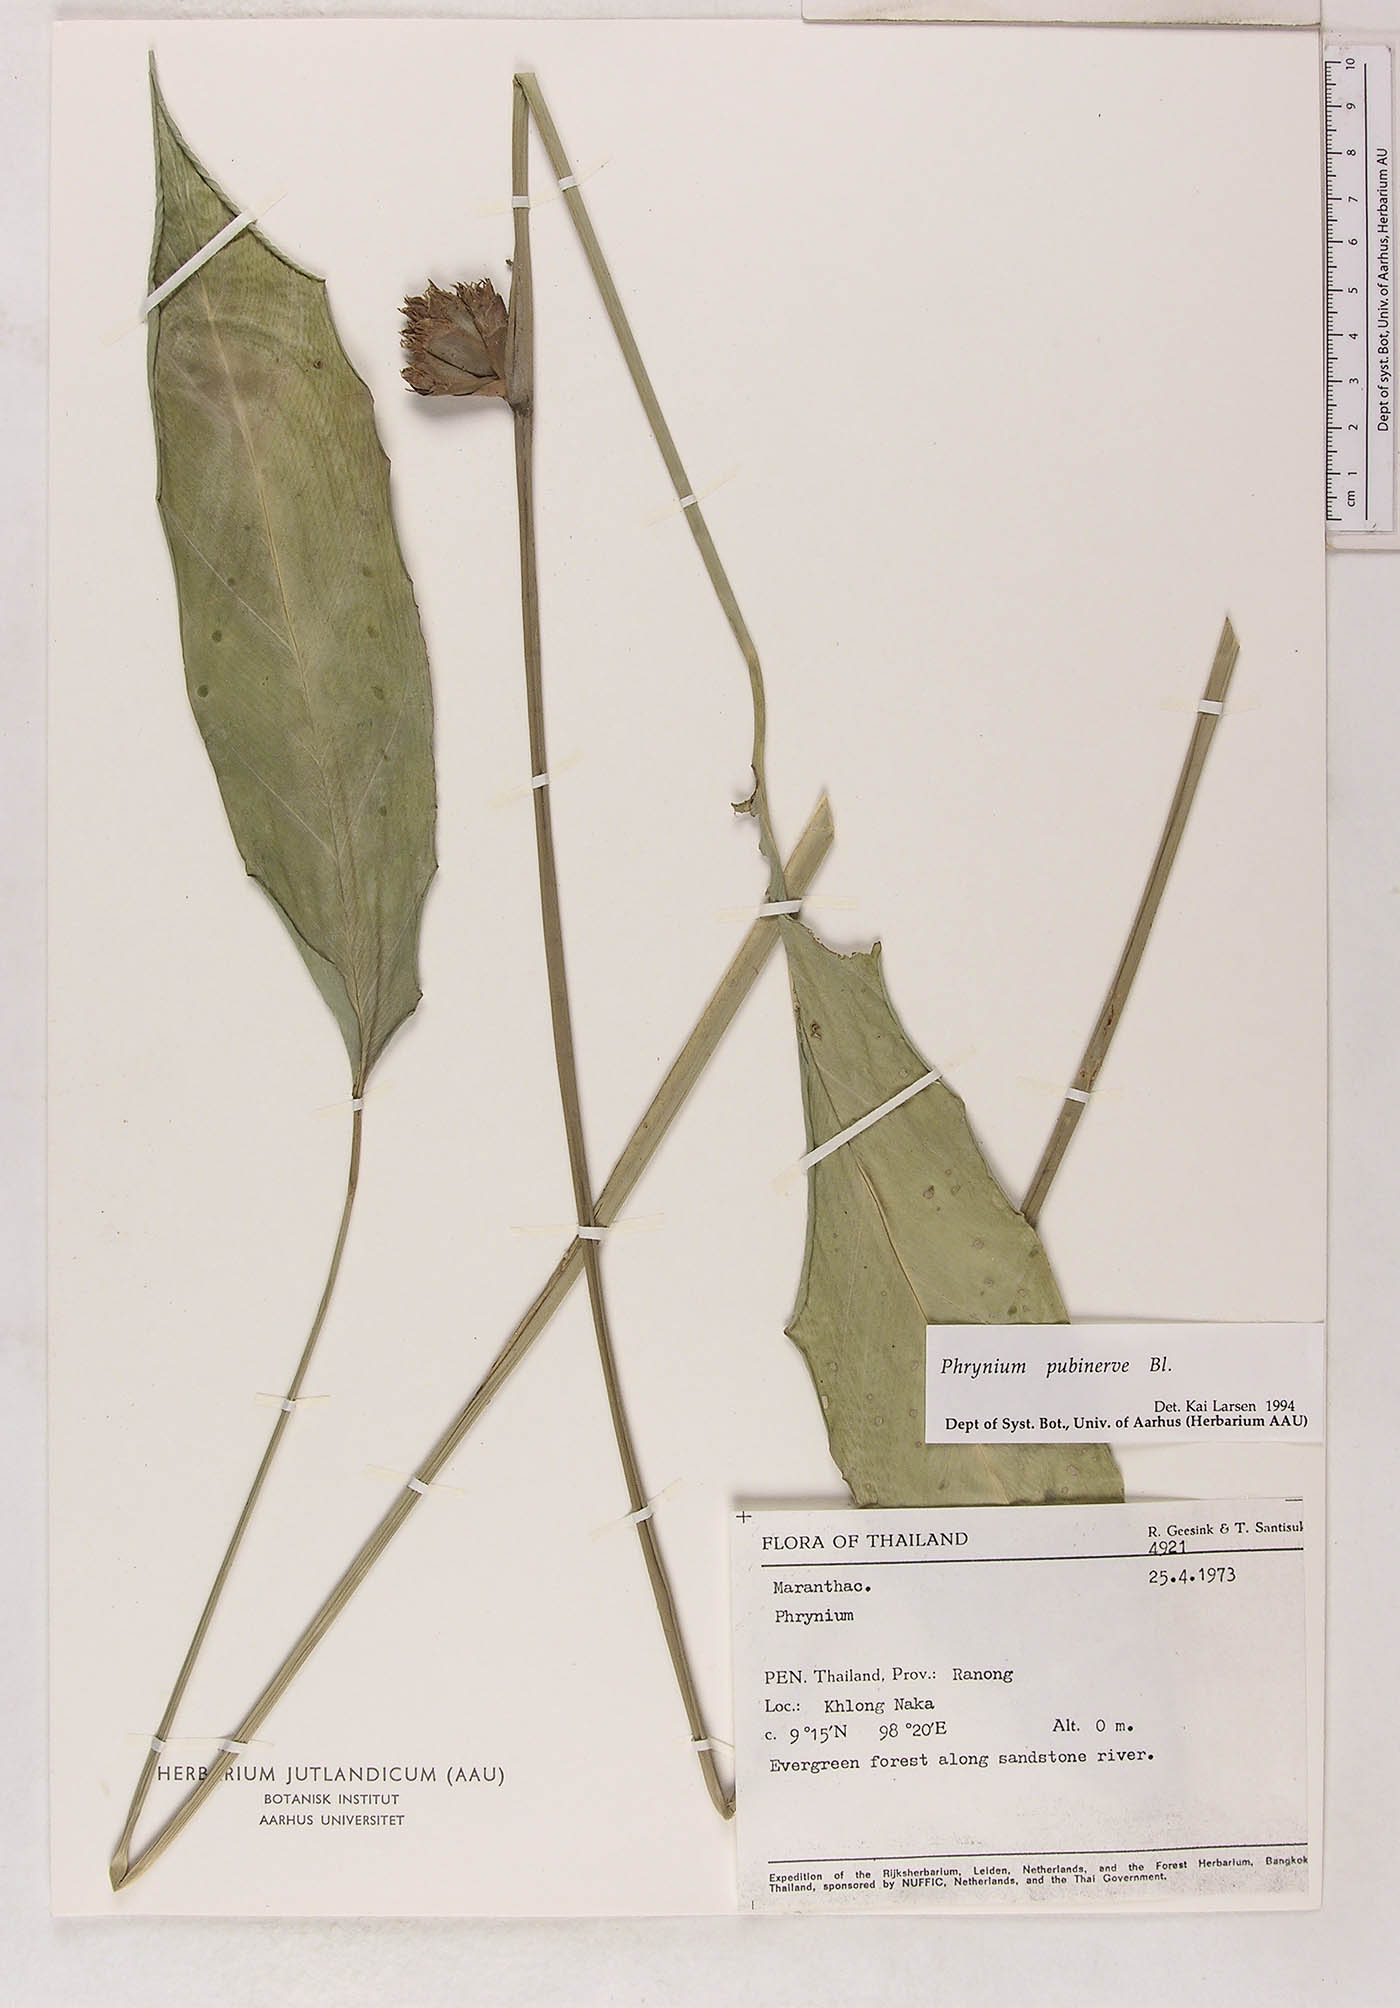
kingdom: Plantae
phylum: Tracheophyta
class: Liliopsida
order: Zingiberales
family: Marantaceae
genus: Phrynium
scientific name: Phrynium pubinerve
